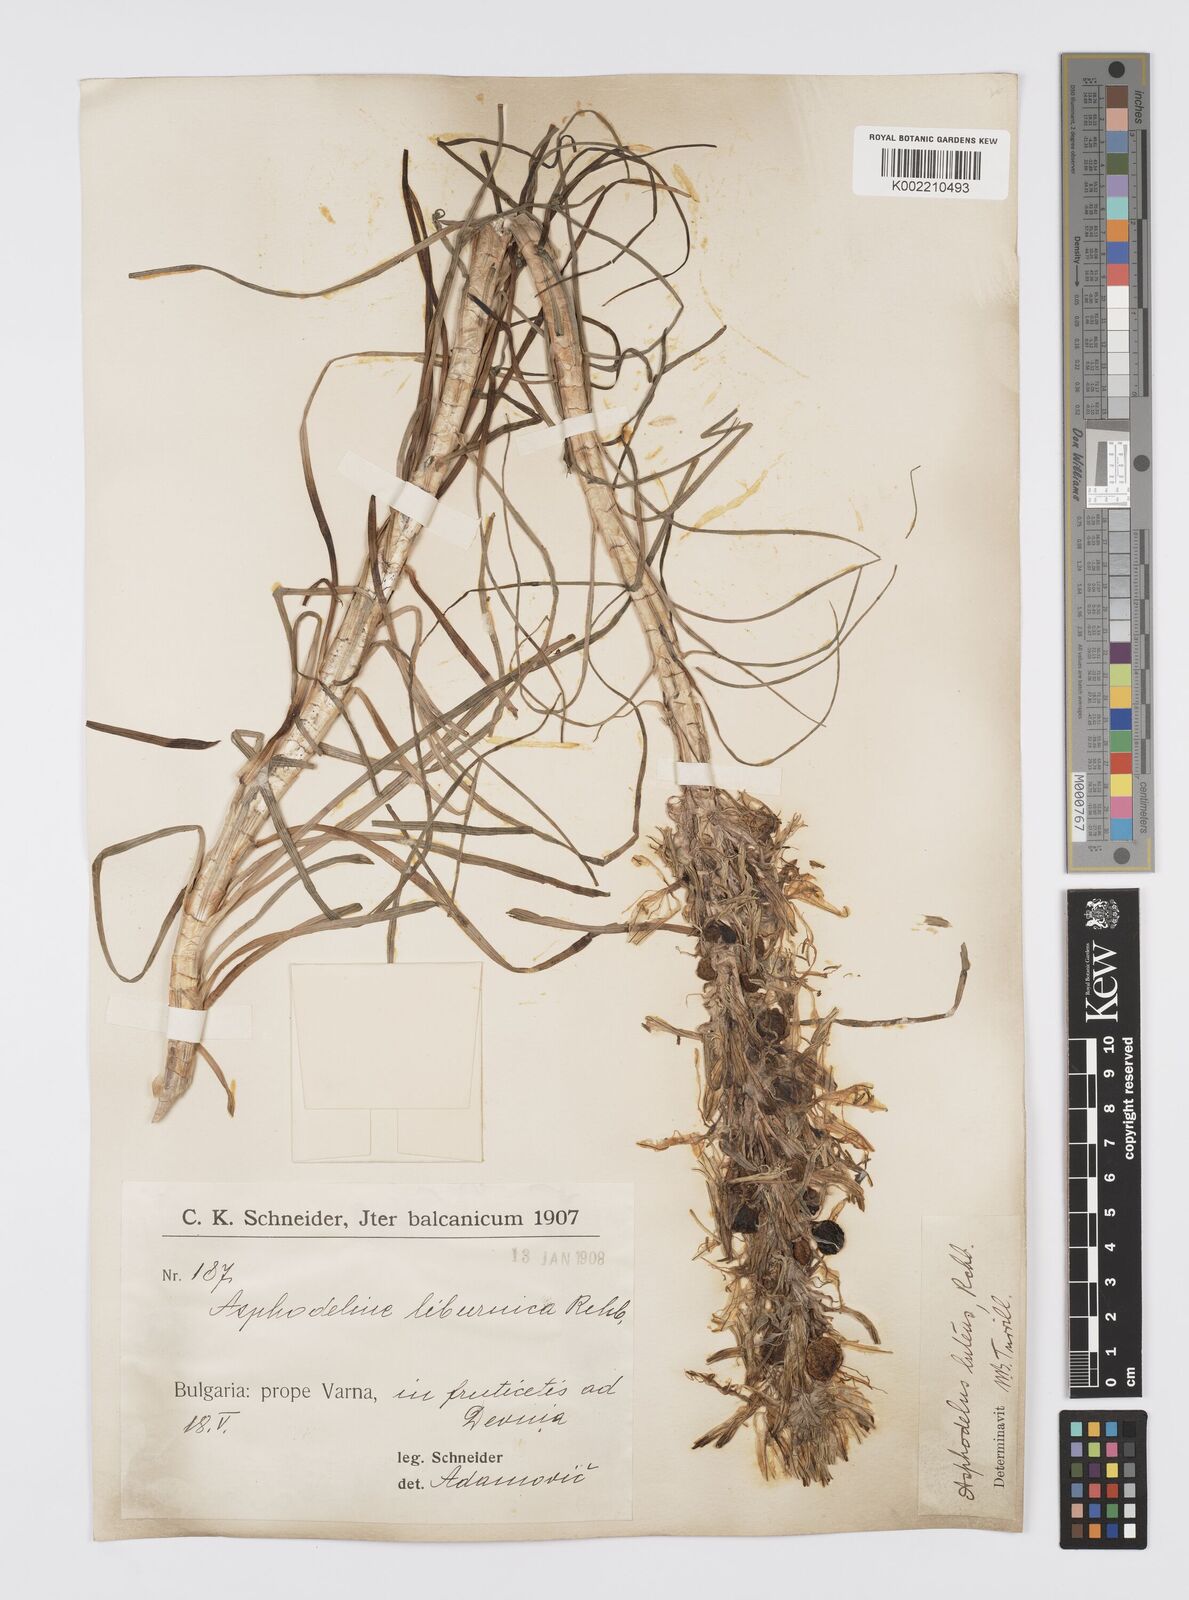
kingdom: Plantae
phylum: Tracheophyta
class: Liliopsida
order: Asparagales
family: Asphodelaceae
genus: Asphodeline
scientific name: Asphodeline lutea
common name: Yellow asphodel
